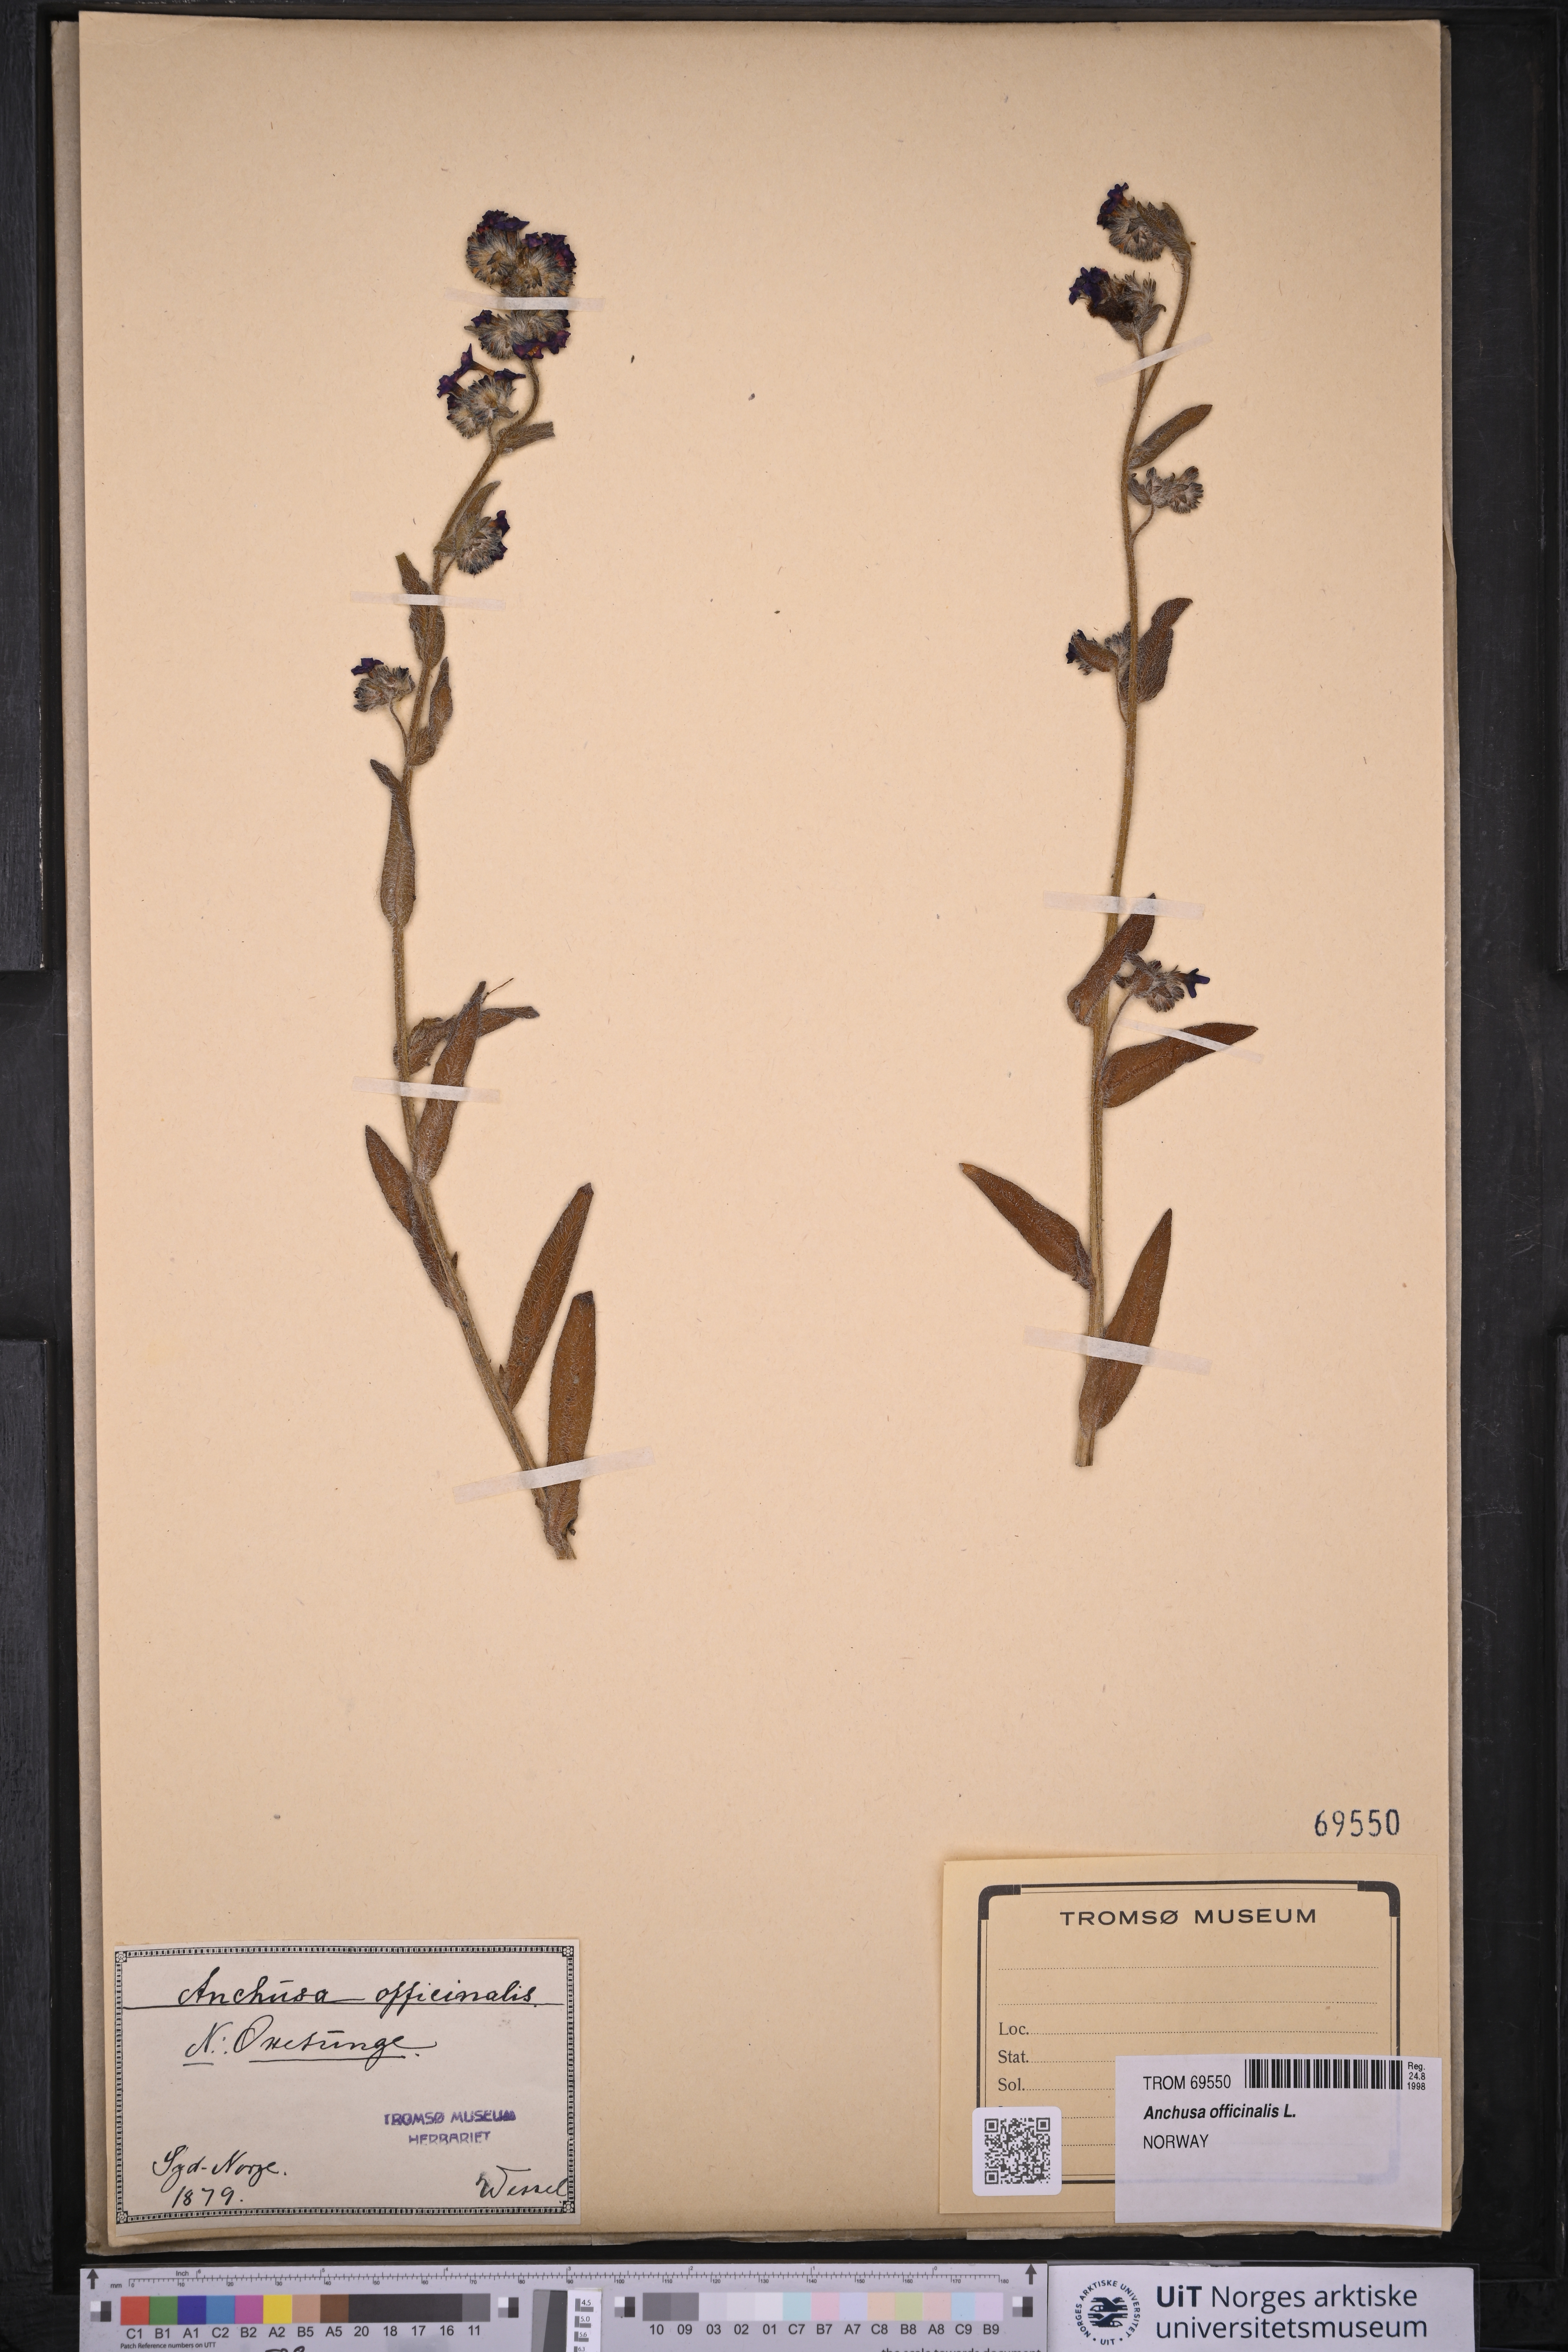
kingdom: Plantae
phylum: Tracheophyta
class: Magnoliopsida
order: Boraginales
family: Boraginaceae
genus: Anchusa
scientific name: Anchusa officinalis
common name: Alkanet
